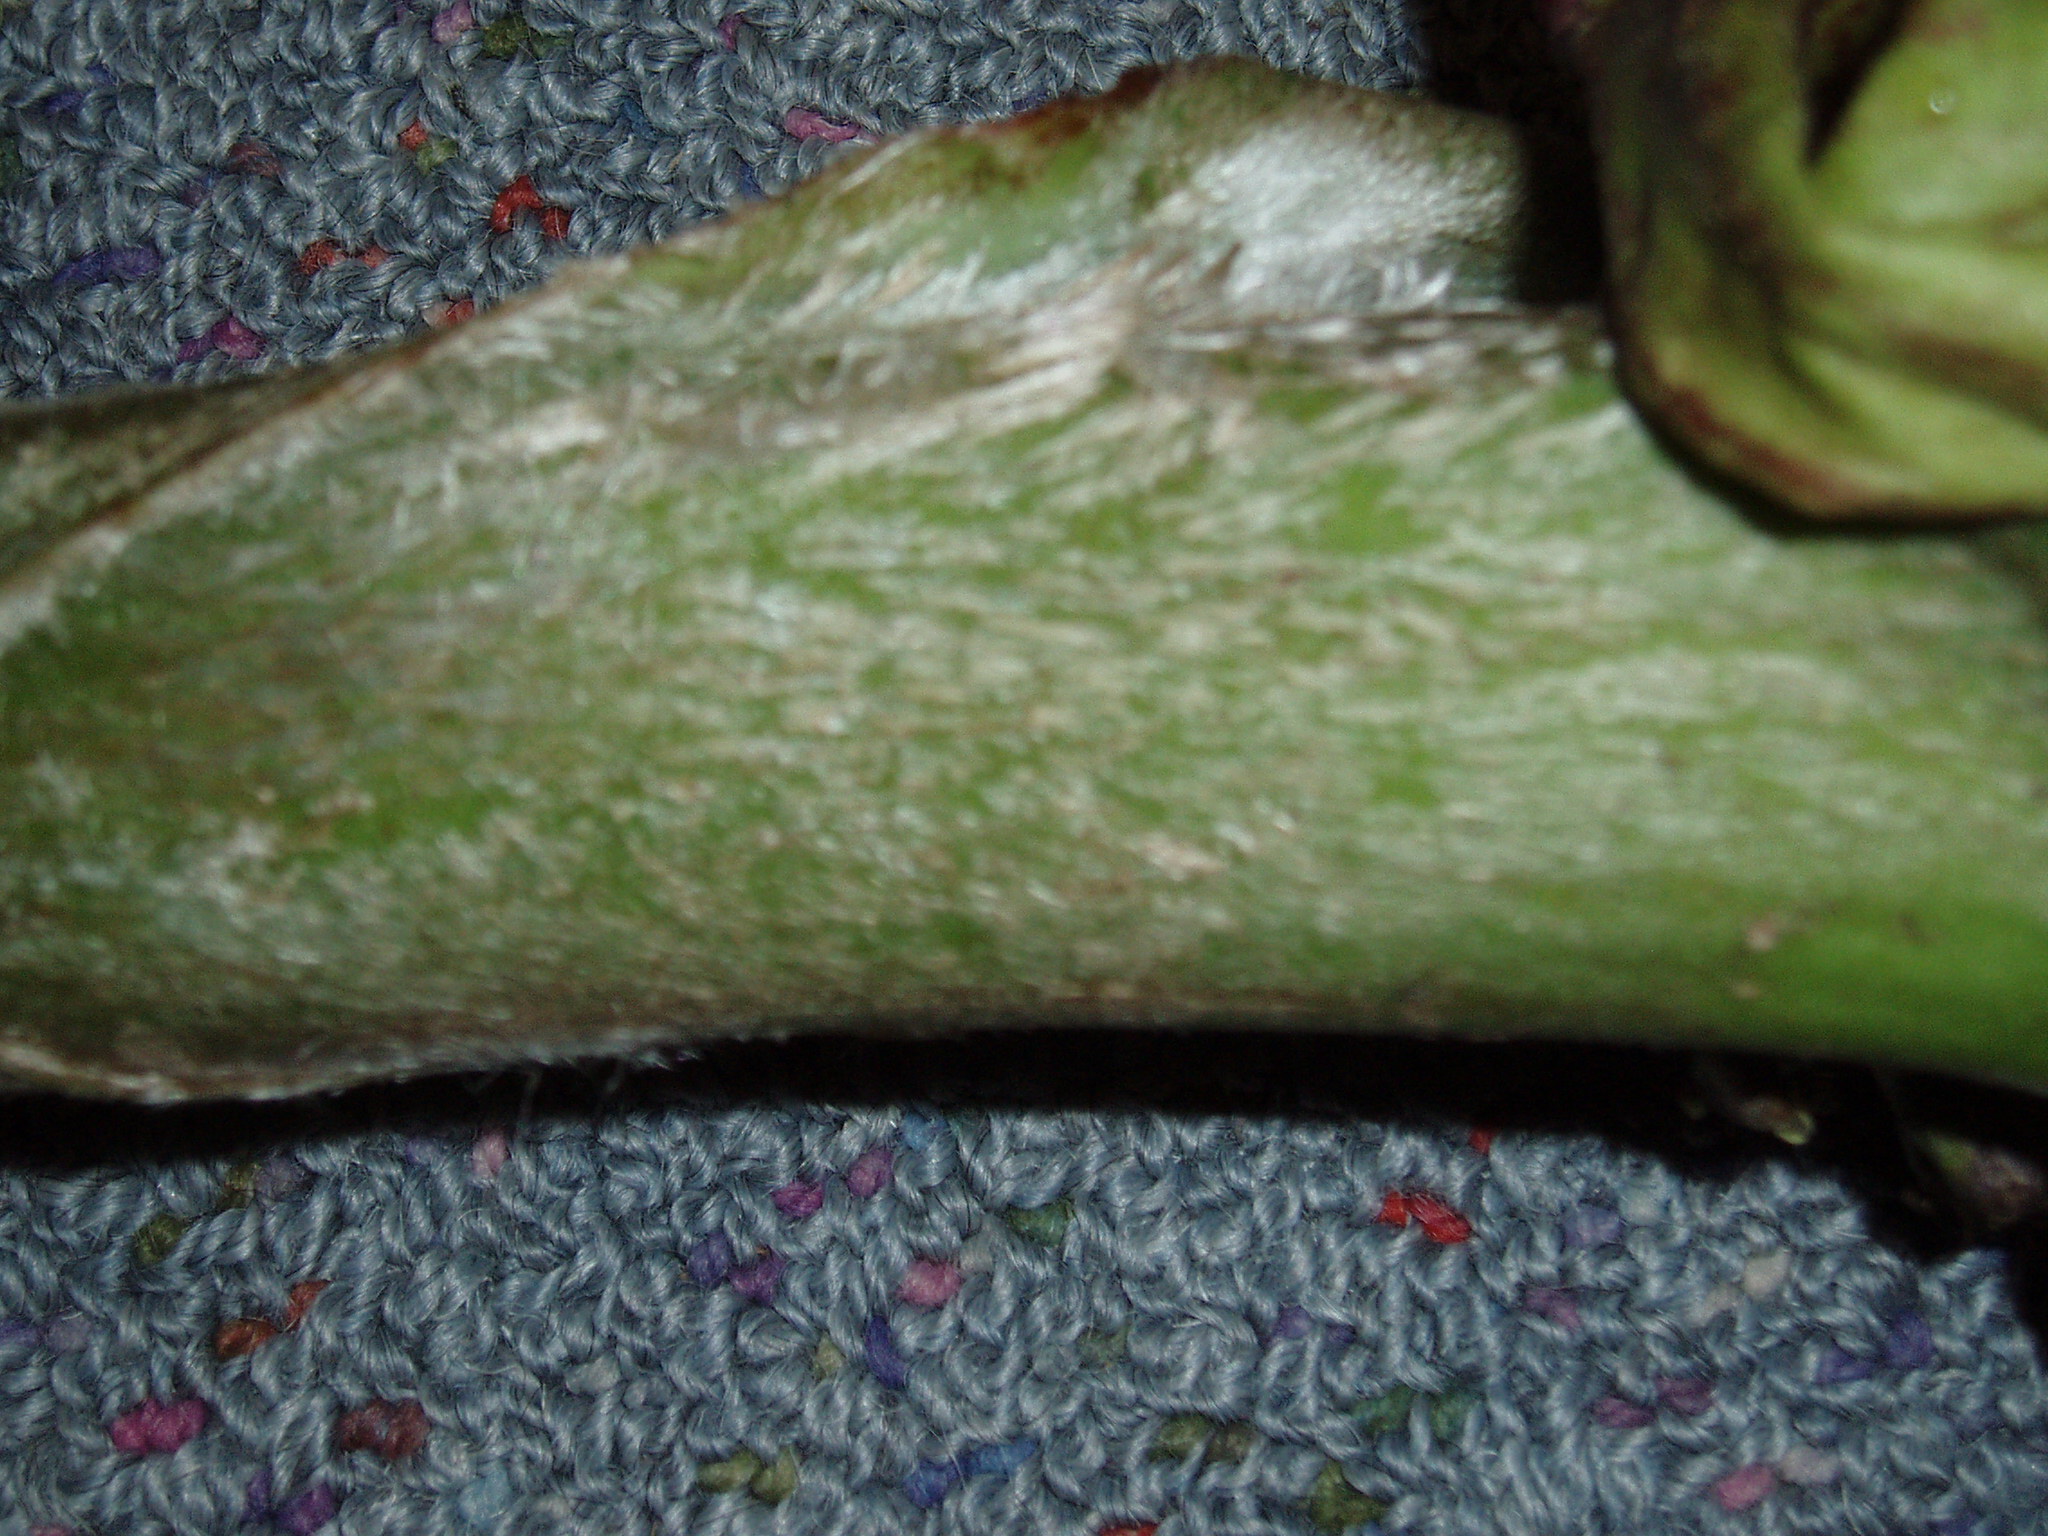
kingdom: Plantae
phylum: Tracheophyta
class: Liliopsida
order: Asparagales
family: Asteliaceae
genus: Astelia
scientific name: Astelia grandis
